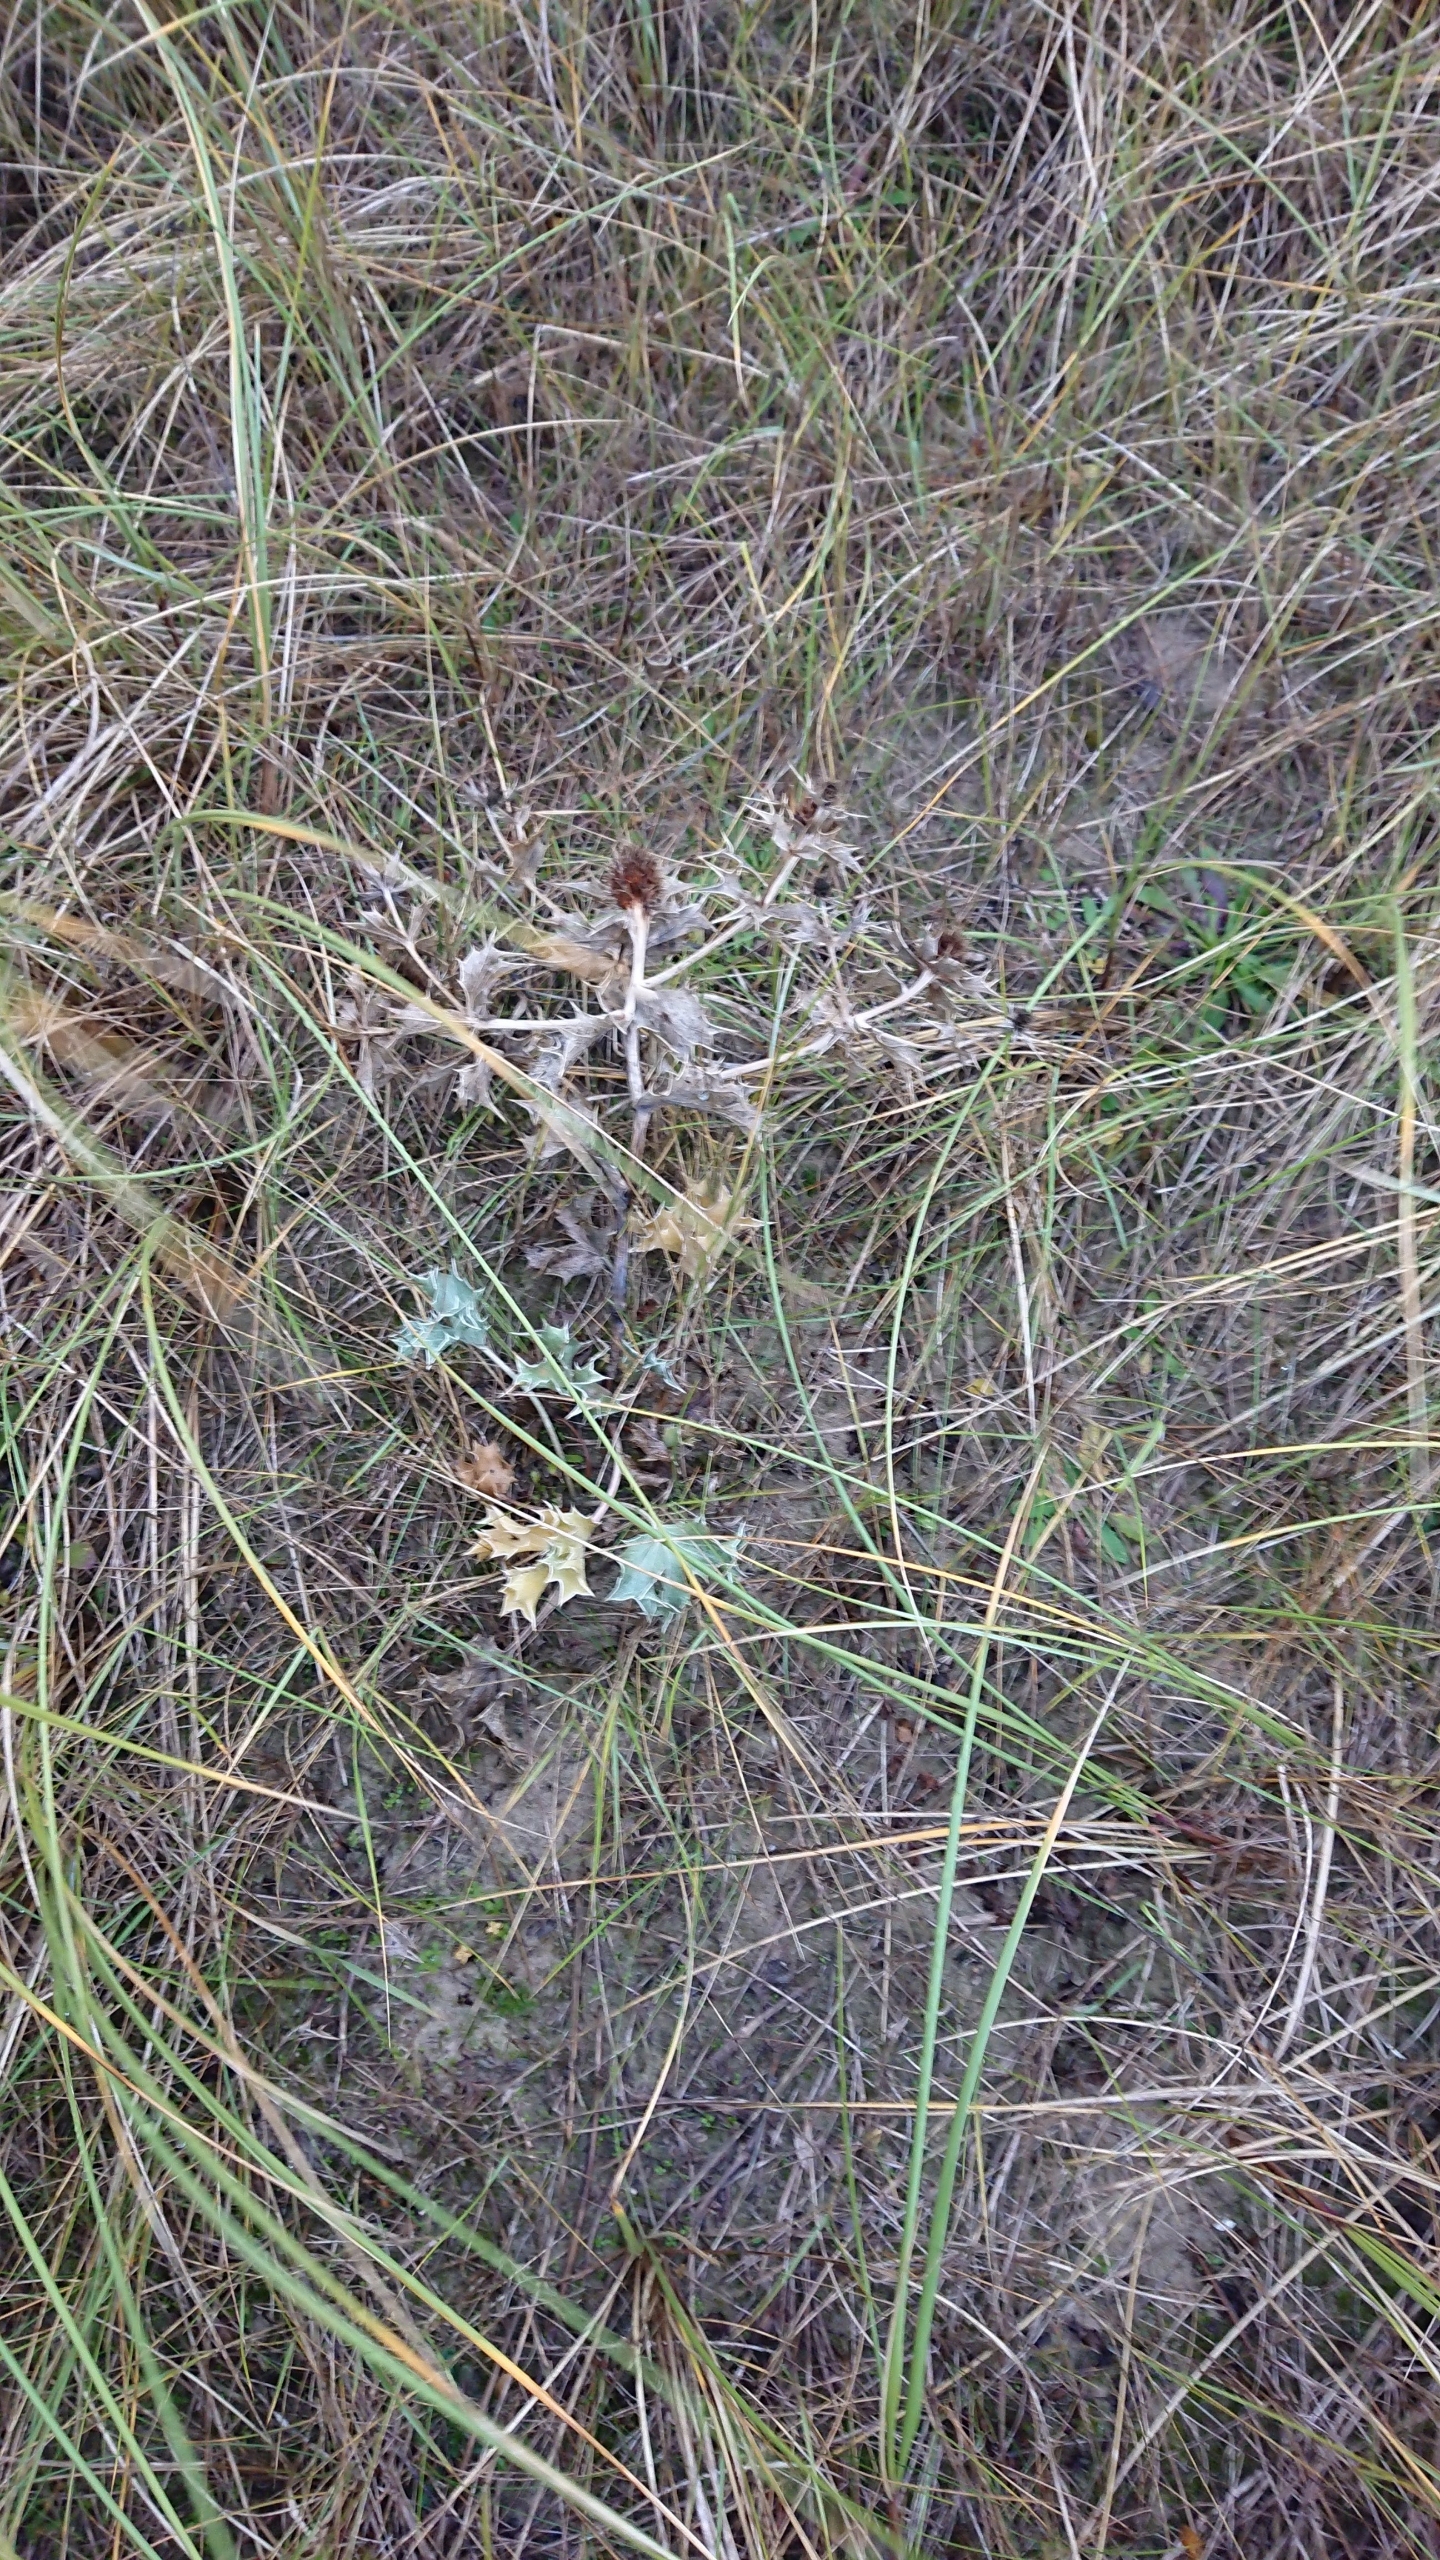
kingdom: Plantae
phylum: Tracheophyta
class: Magnoliopsida
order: Apiales
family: Apiaceae
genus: Eryngium
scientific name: Eryngium maritimum
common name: Strand-mandstro
